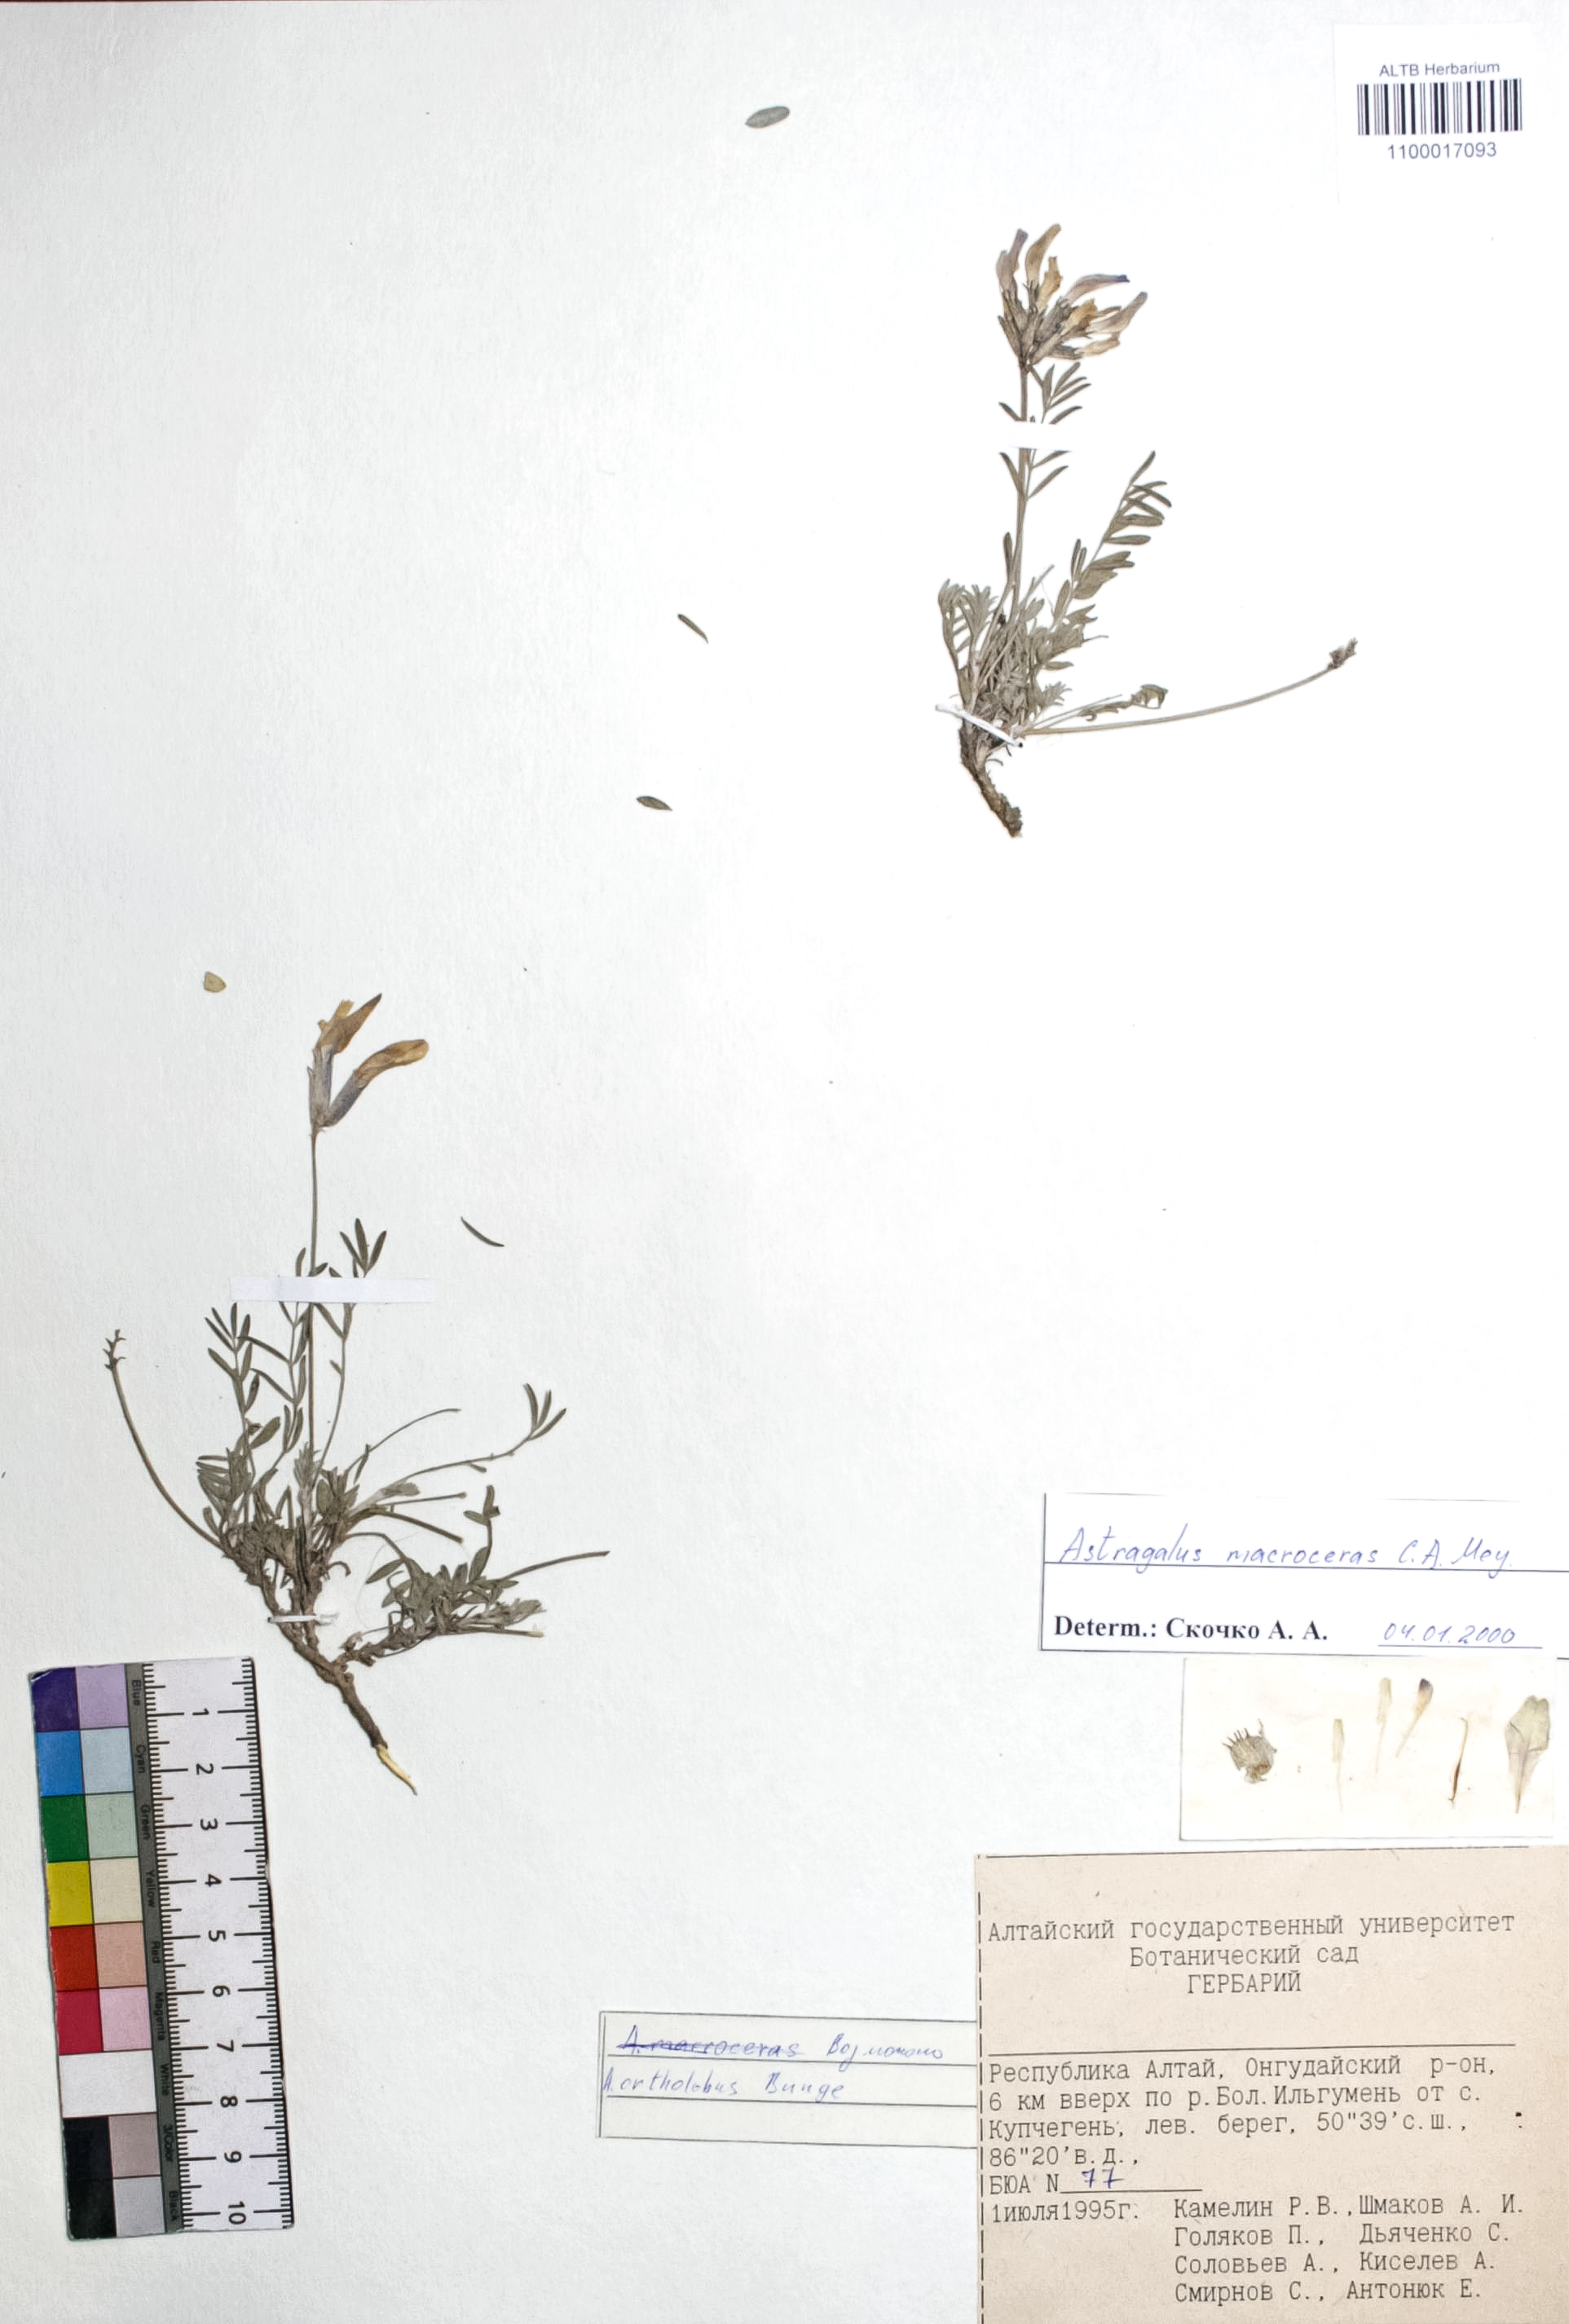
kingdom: Plantae
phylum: Tracheophyta
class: Magnoliopsida
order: Fabales
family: Fabaceae
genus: Astragalus
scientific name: Astragalus macroceras
